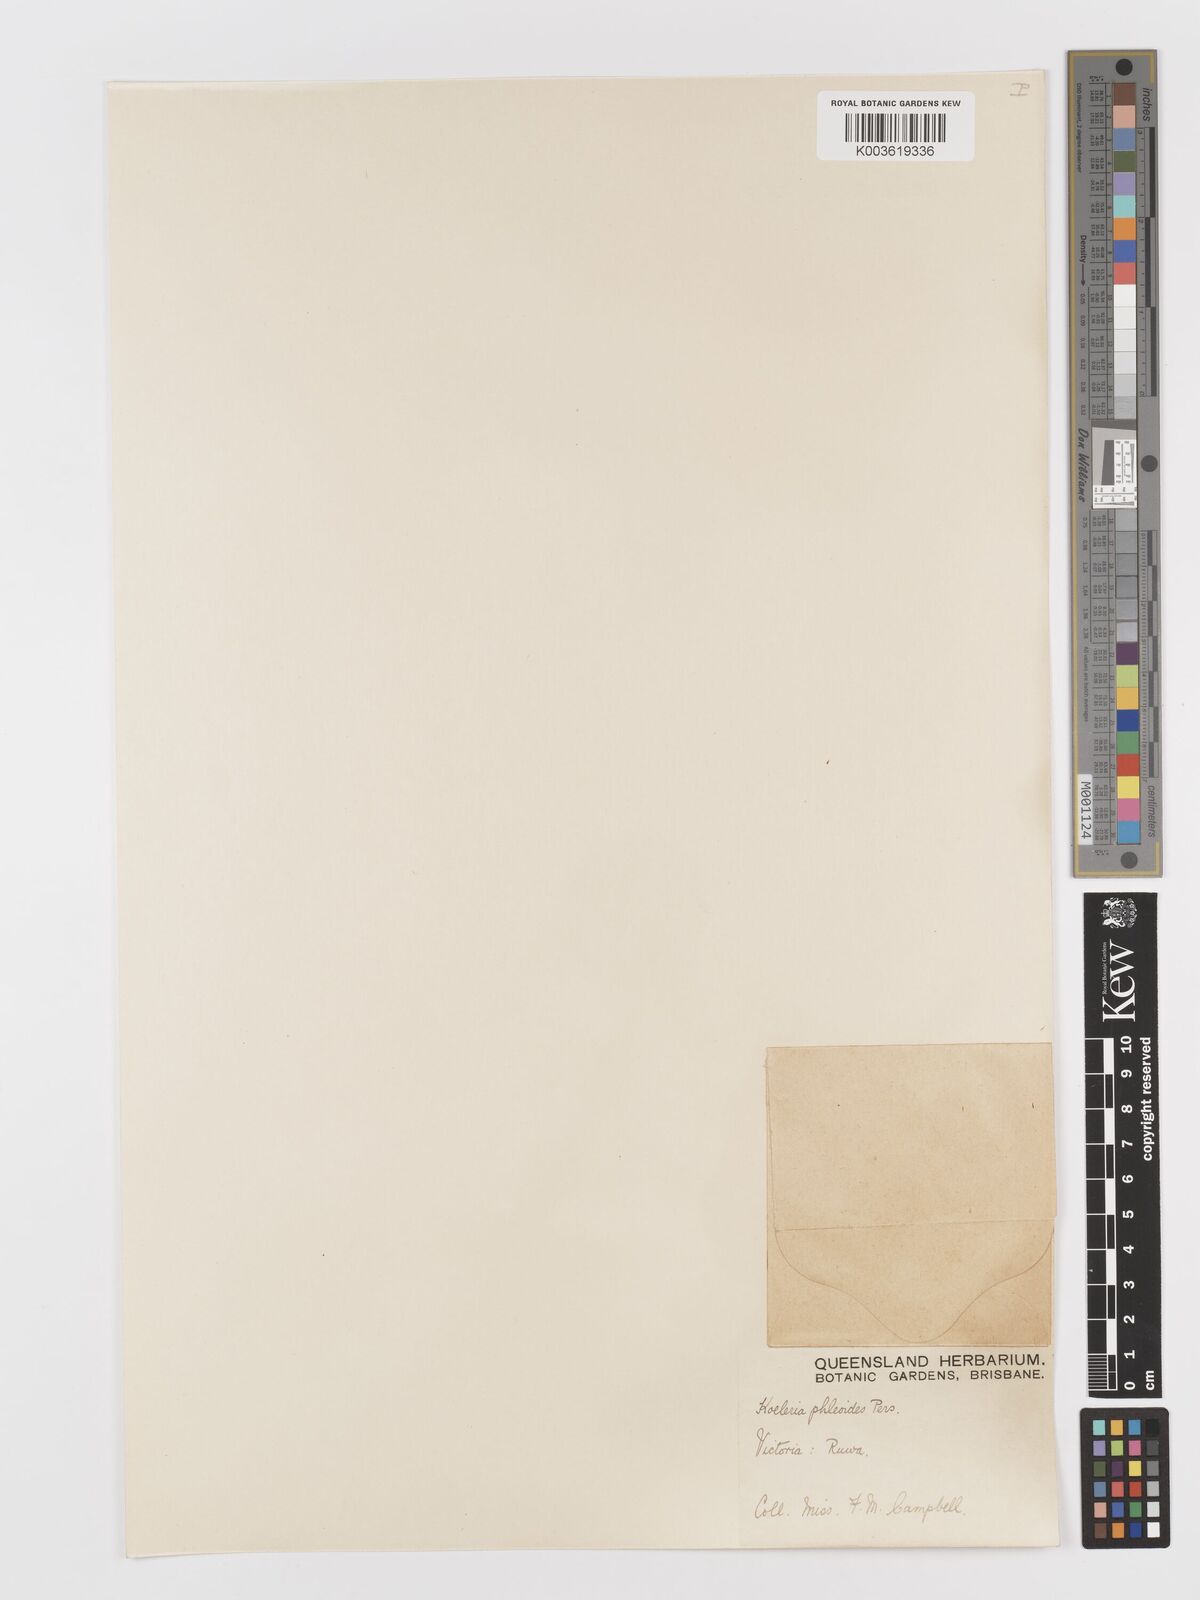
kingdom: Plantae
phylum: Tracheophyta
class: Liliopsida
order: Poales
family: Poaceae
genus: Rostraria
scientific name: Rostraria cristata
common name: Mediterranean hair-grass
